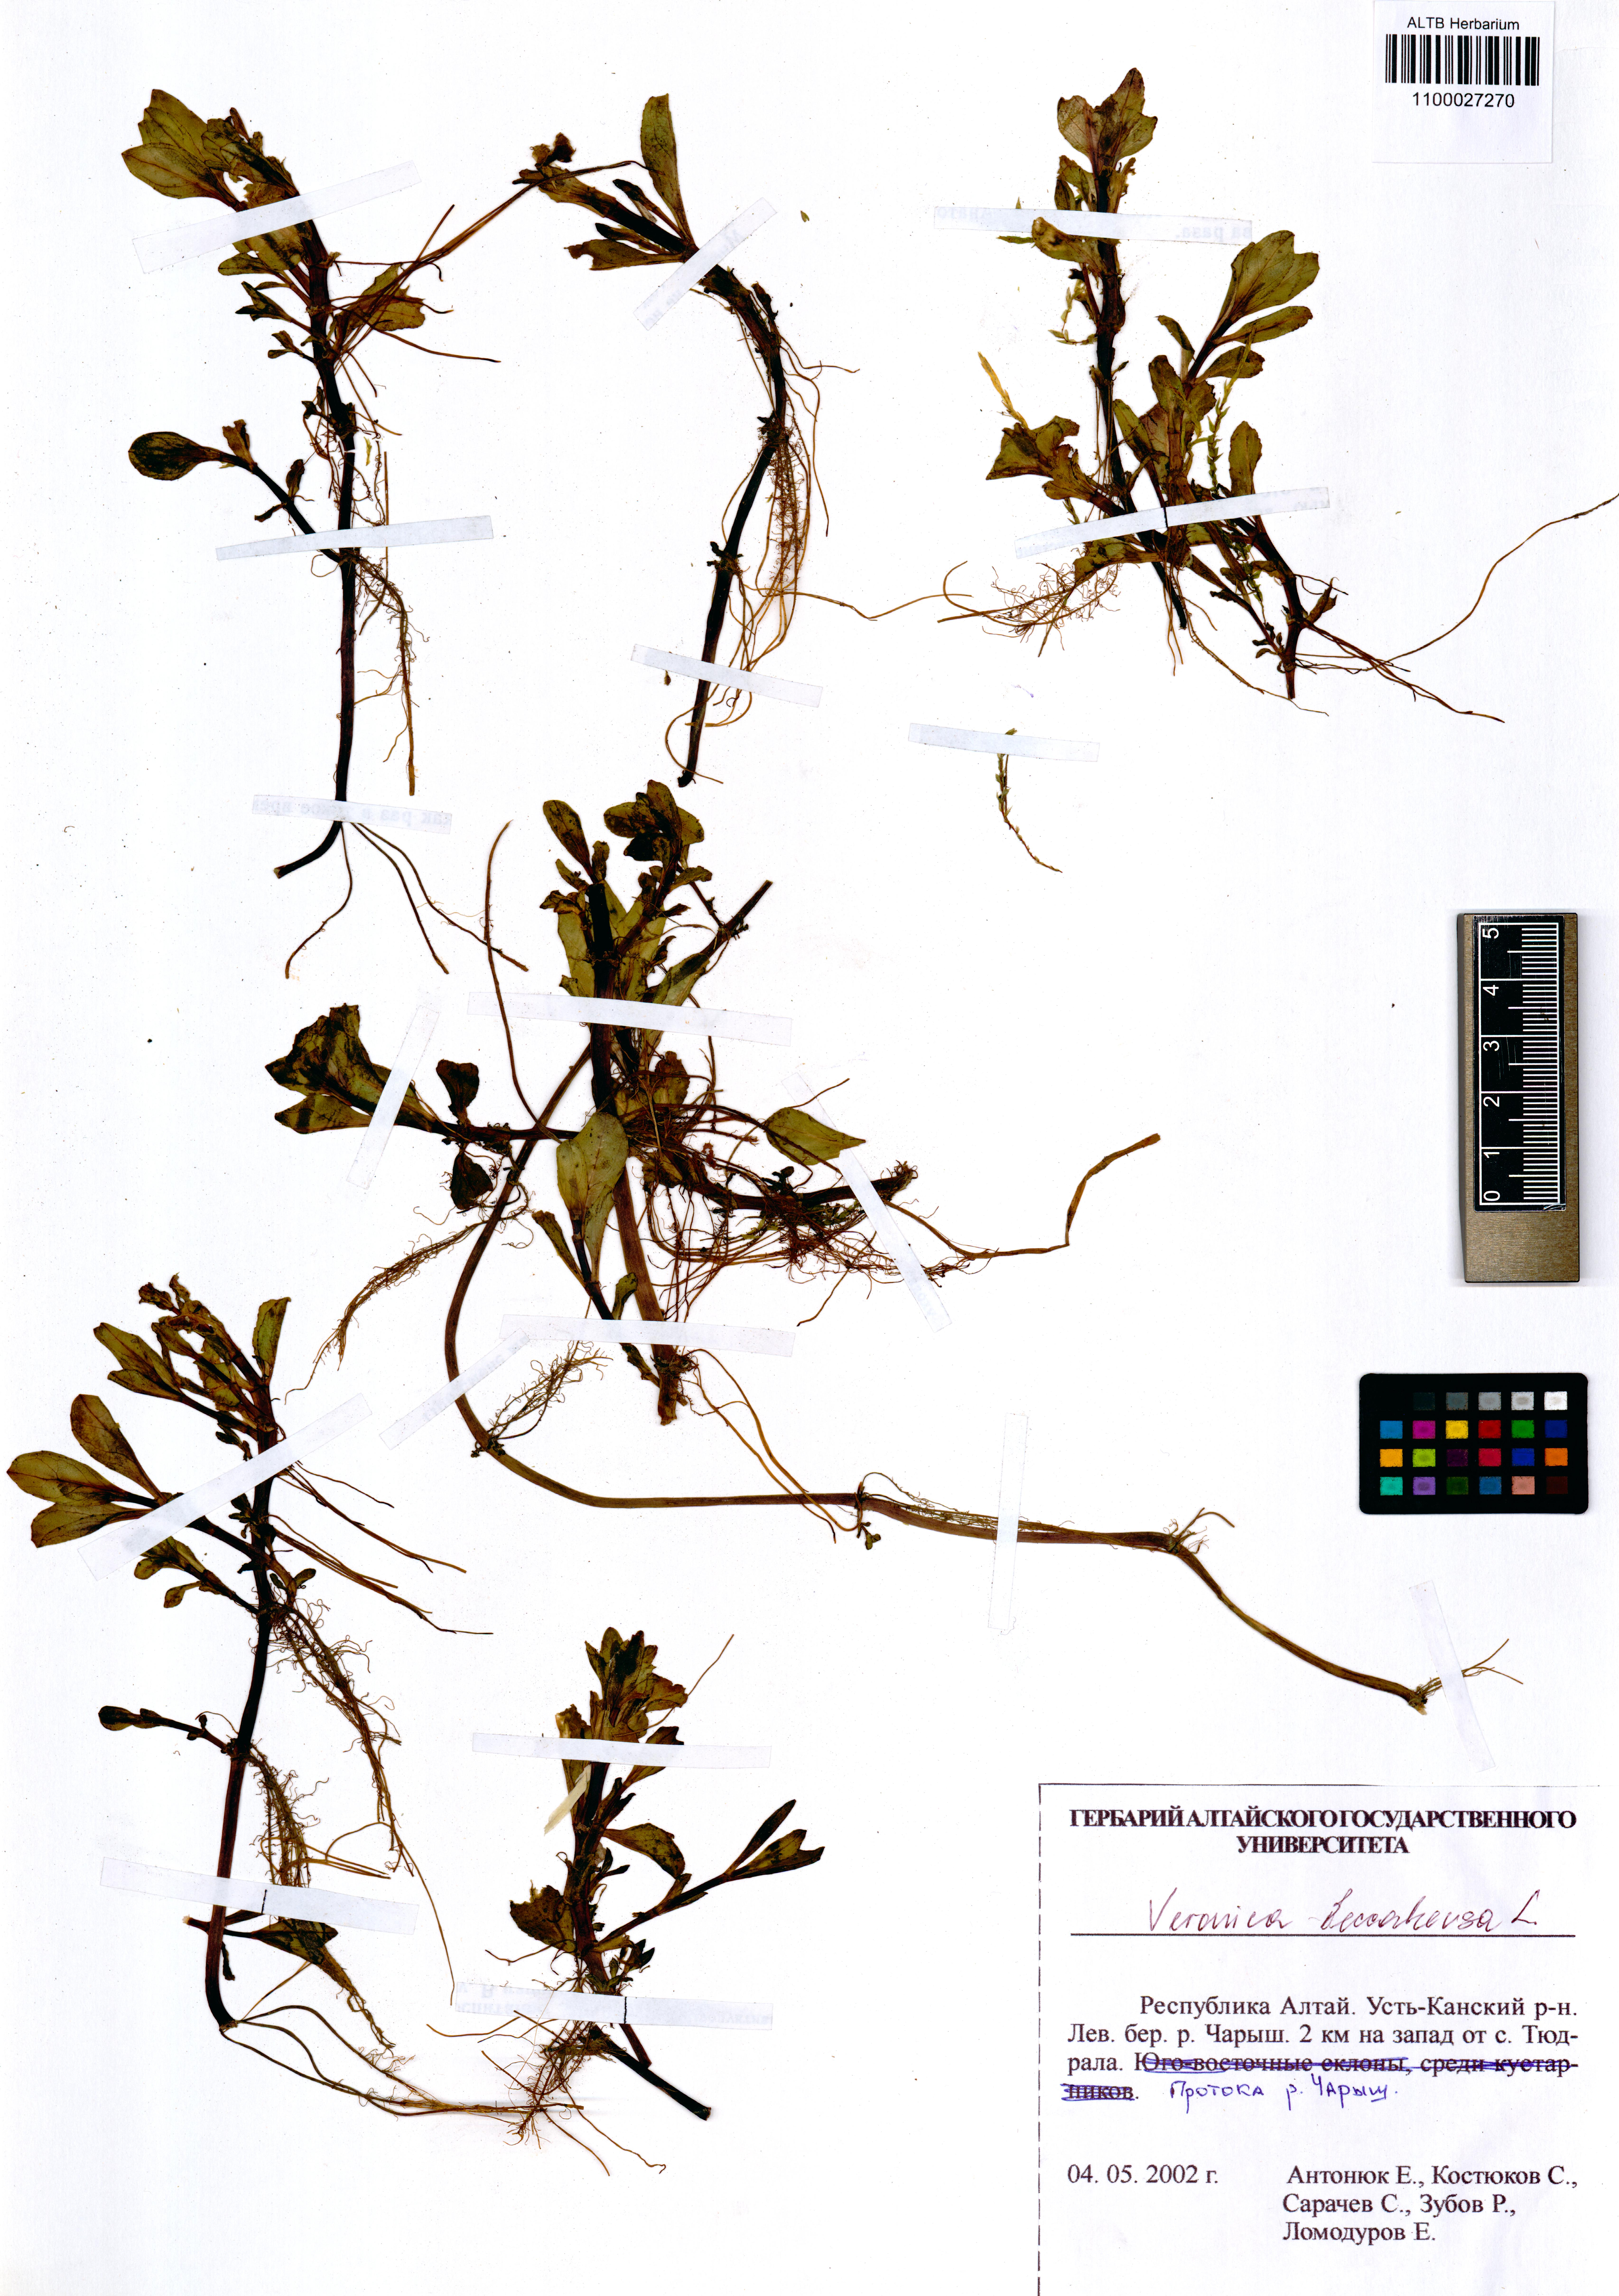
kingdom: Plantae
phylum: Tracheophyta
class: Magnoliopsida
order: Lamiales
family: Plantaginaceae
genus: Veronica
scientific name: Veronica beccabunga
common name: Brooklime
